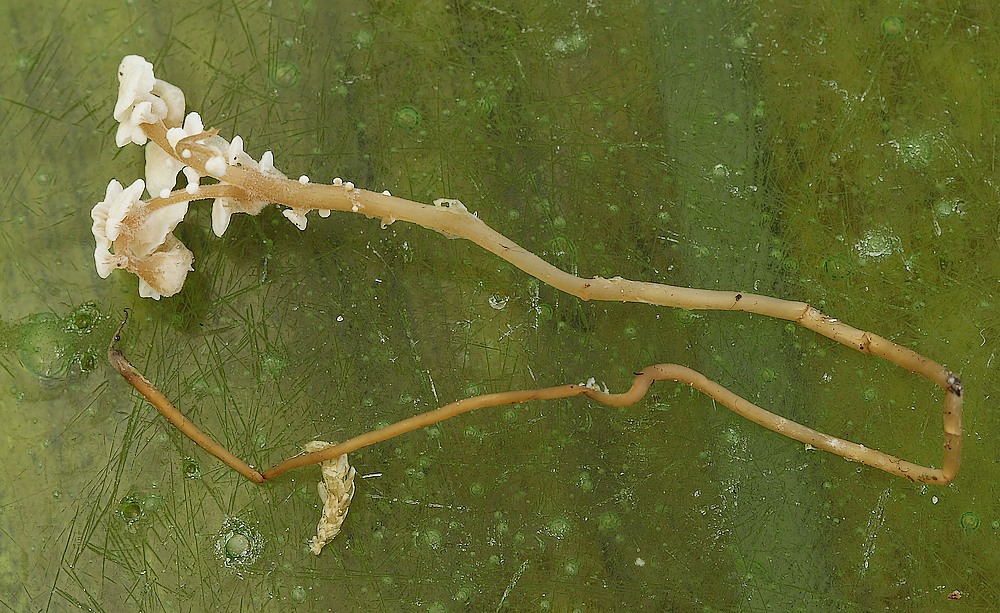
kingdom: Fungi
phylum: Basidiomycota
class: Agaricomycetes
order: Agaricales
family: Tricholomataceae
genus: Collybia
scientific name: Collybia cirrhata
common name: silke-lighat
